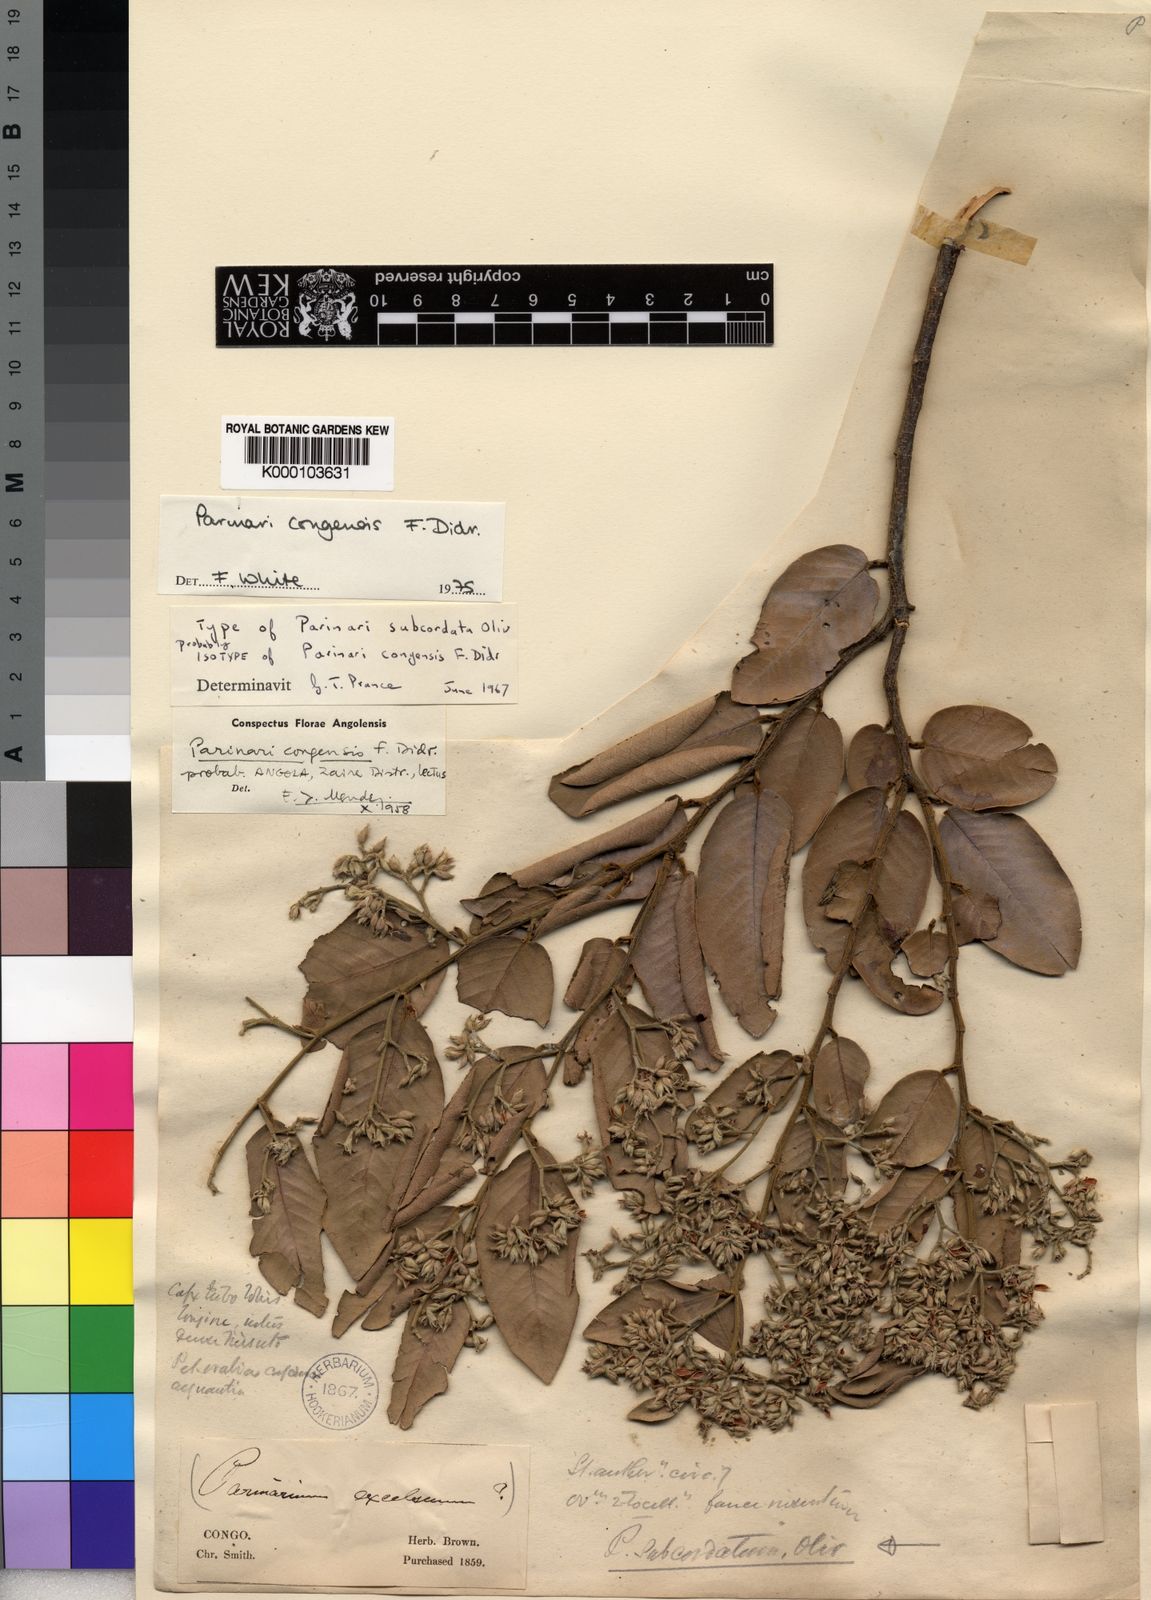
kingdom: Plantae
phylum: Tracheophyta
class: Magnoliopsida
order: Malpighiales
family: Chrysobalanaceae
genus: Parinari
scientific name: Parinari congensis
